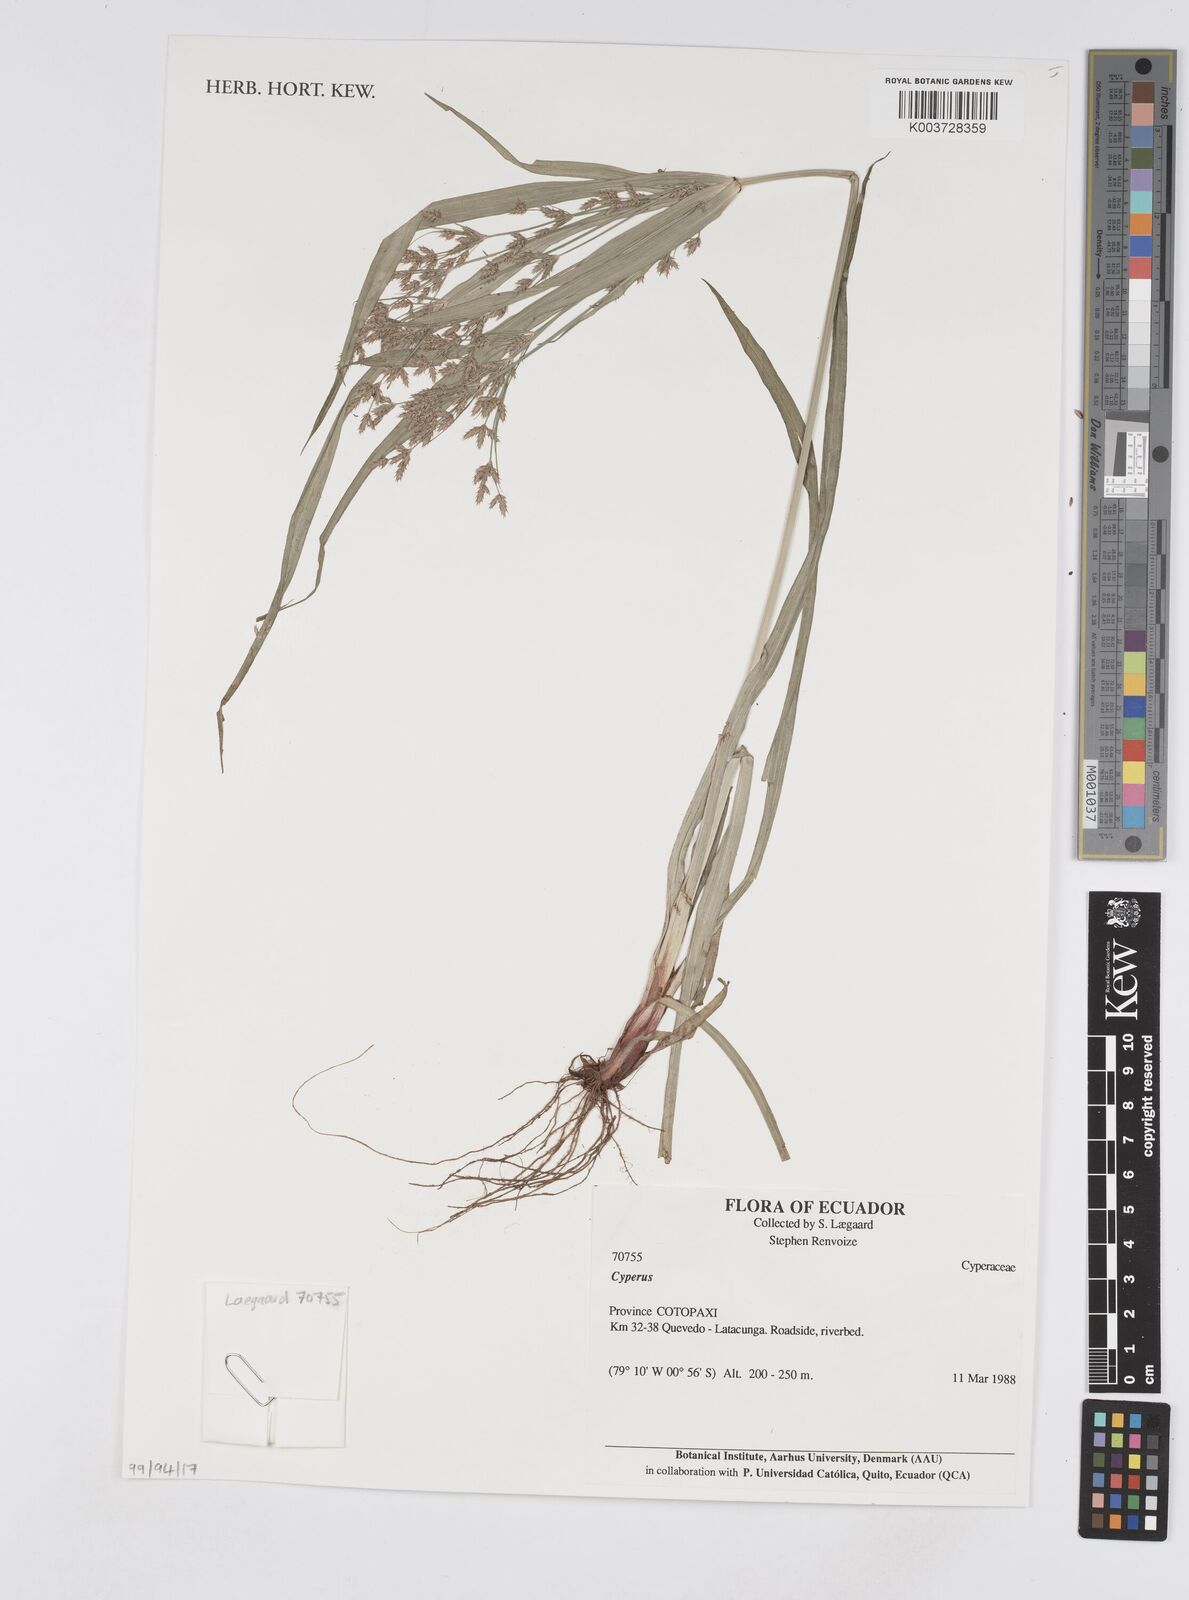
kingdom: Plantae
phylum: Tracheophyta
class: Liliopsida
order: Poales
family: Cyperaceae
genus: Cyperus
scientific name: Cyperus
